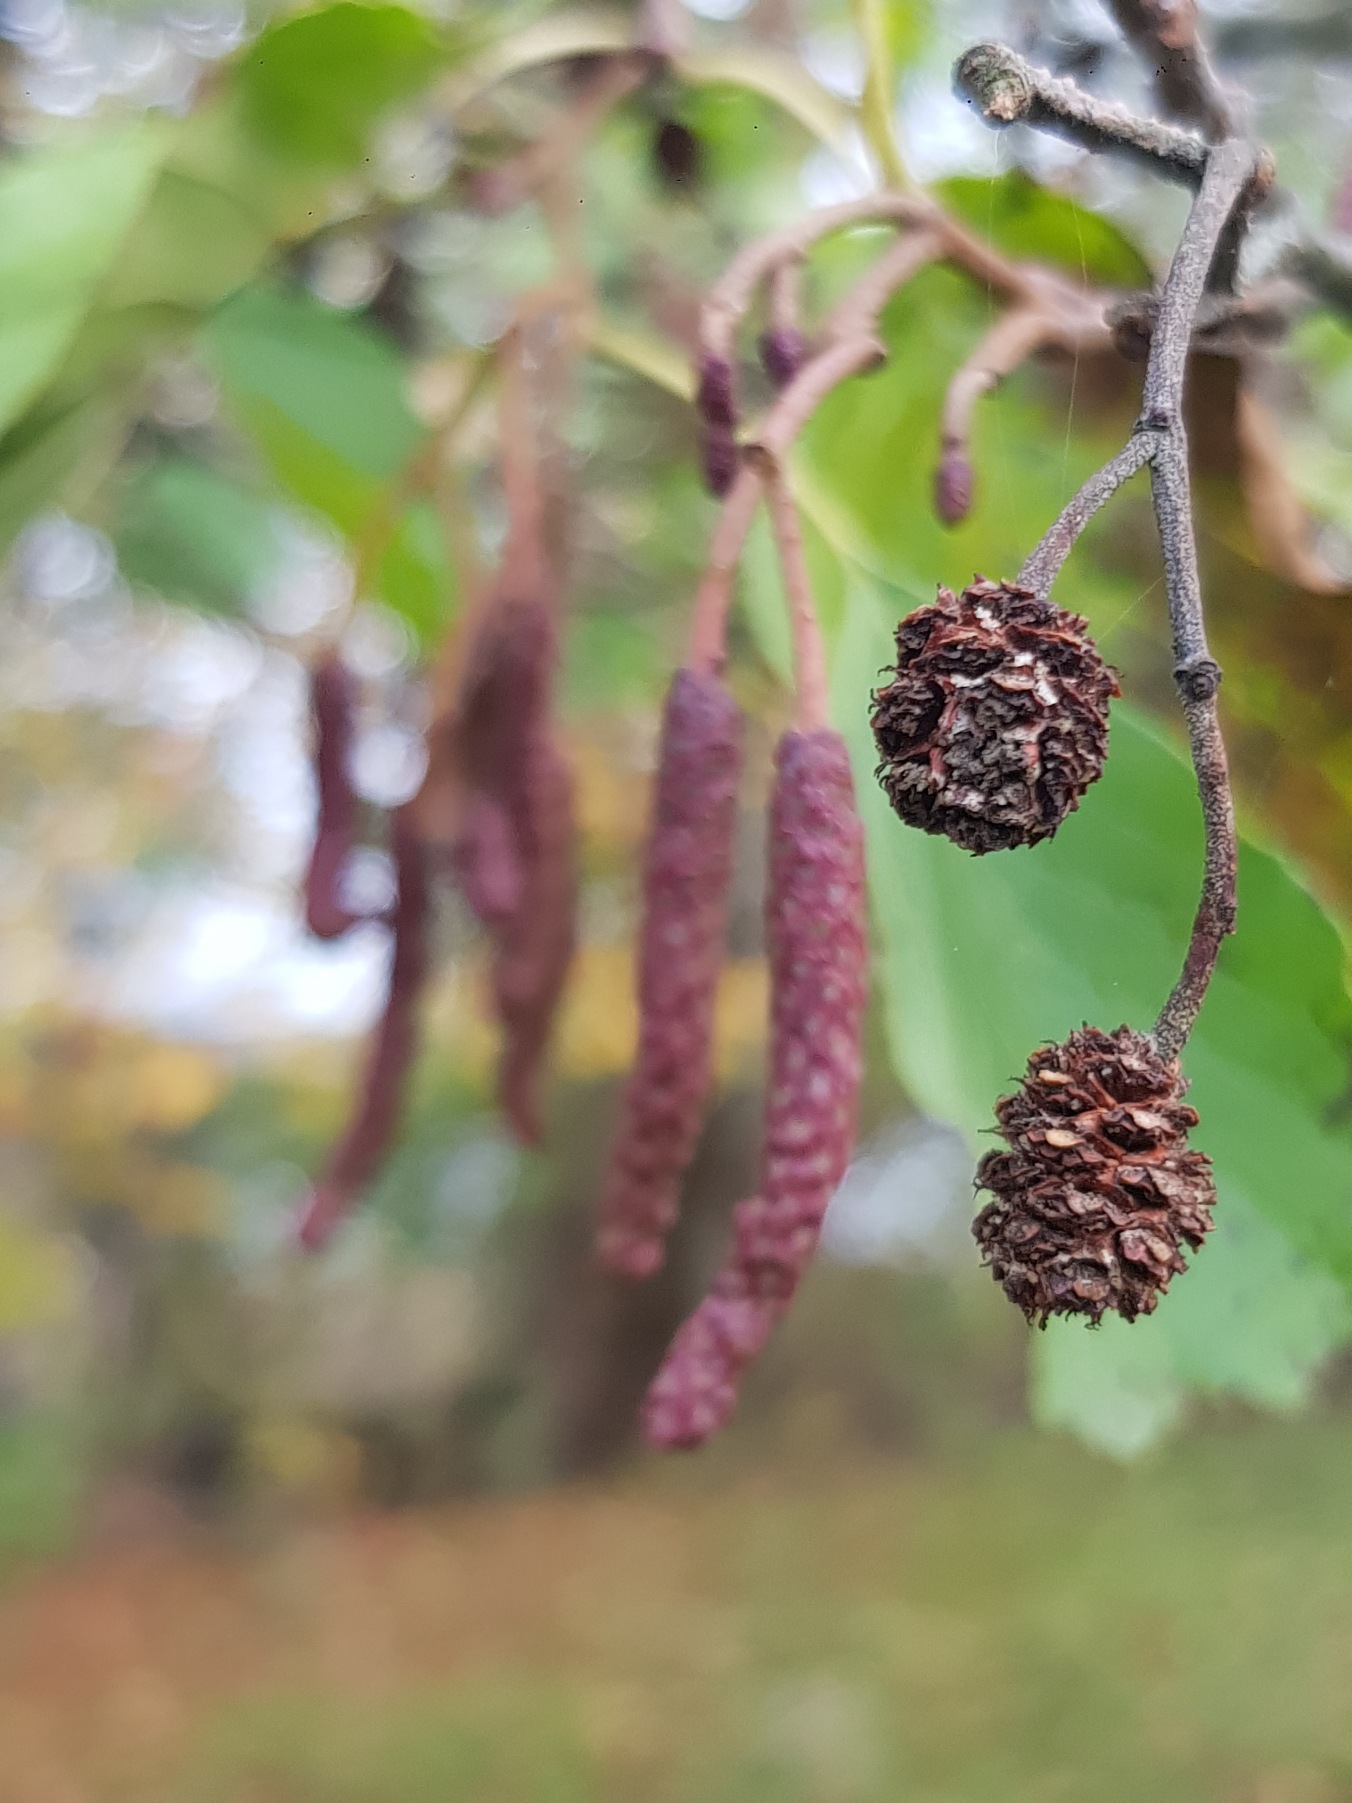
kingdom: Plantae
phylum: Tracheophyta
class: Magnoliopsida
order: Fagales
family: Betulaceae
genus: Alnus
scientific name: Alnus glutinosa
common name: Rød-el
